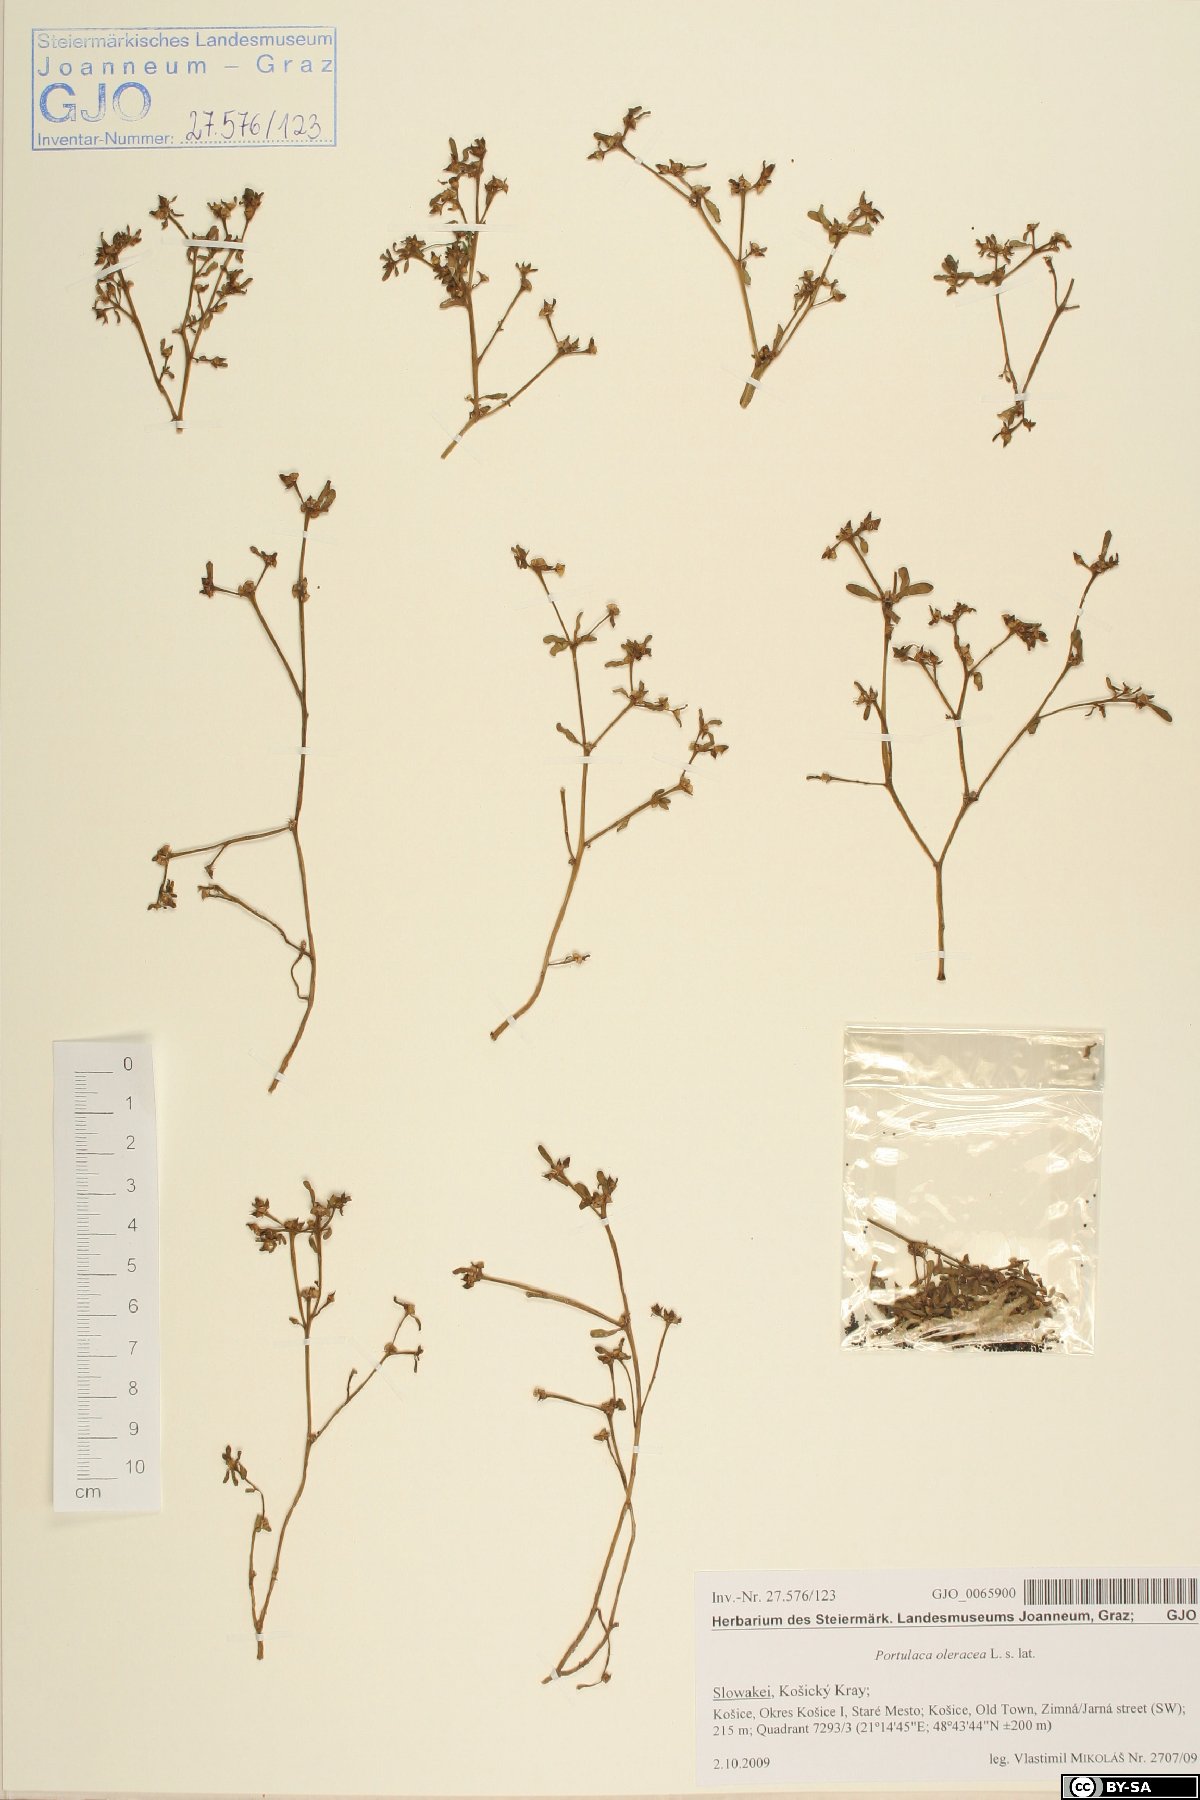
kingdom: Plantae
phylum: Tracheophyta
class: Magnoliopsida
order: Caryophyllales
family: Portulacaceae
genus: Portulaca
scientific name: Portulaca oleracea
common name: Common purslane
